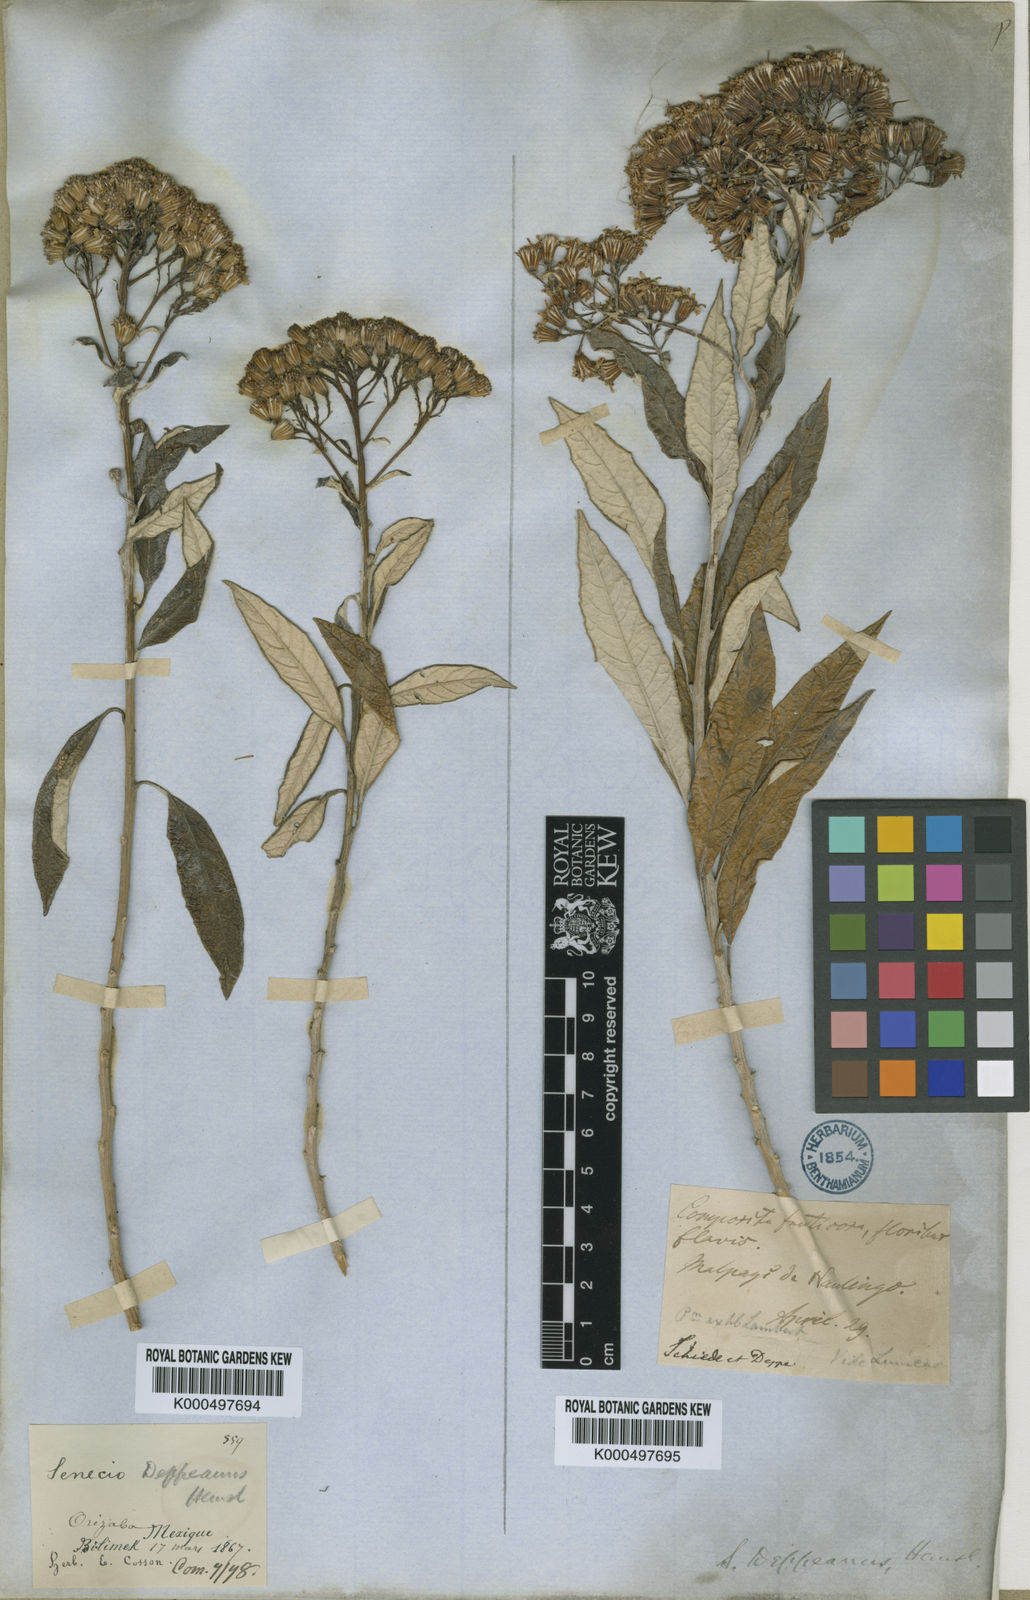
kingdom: Plantae
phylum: Tracheophyta
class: Magnoliopsida
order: Asterales
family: Asteraceae
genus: Zemisia
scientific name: Zemisia thomasii
